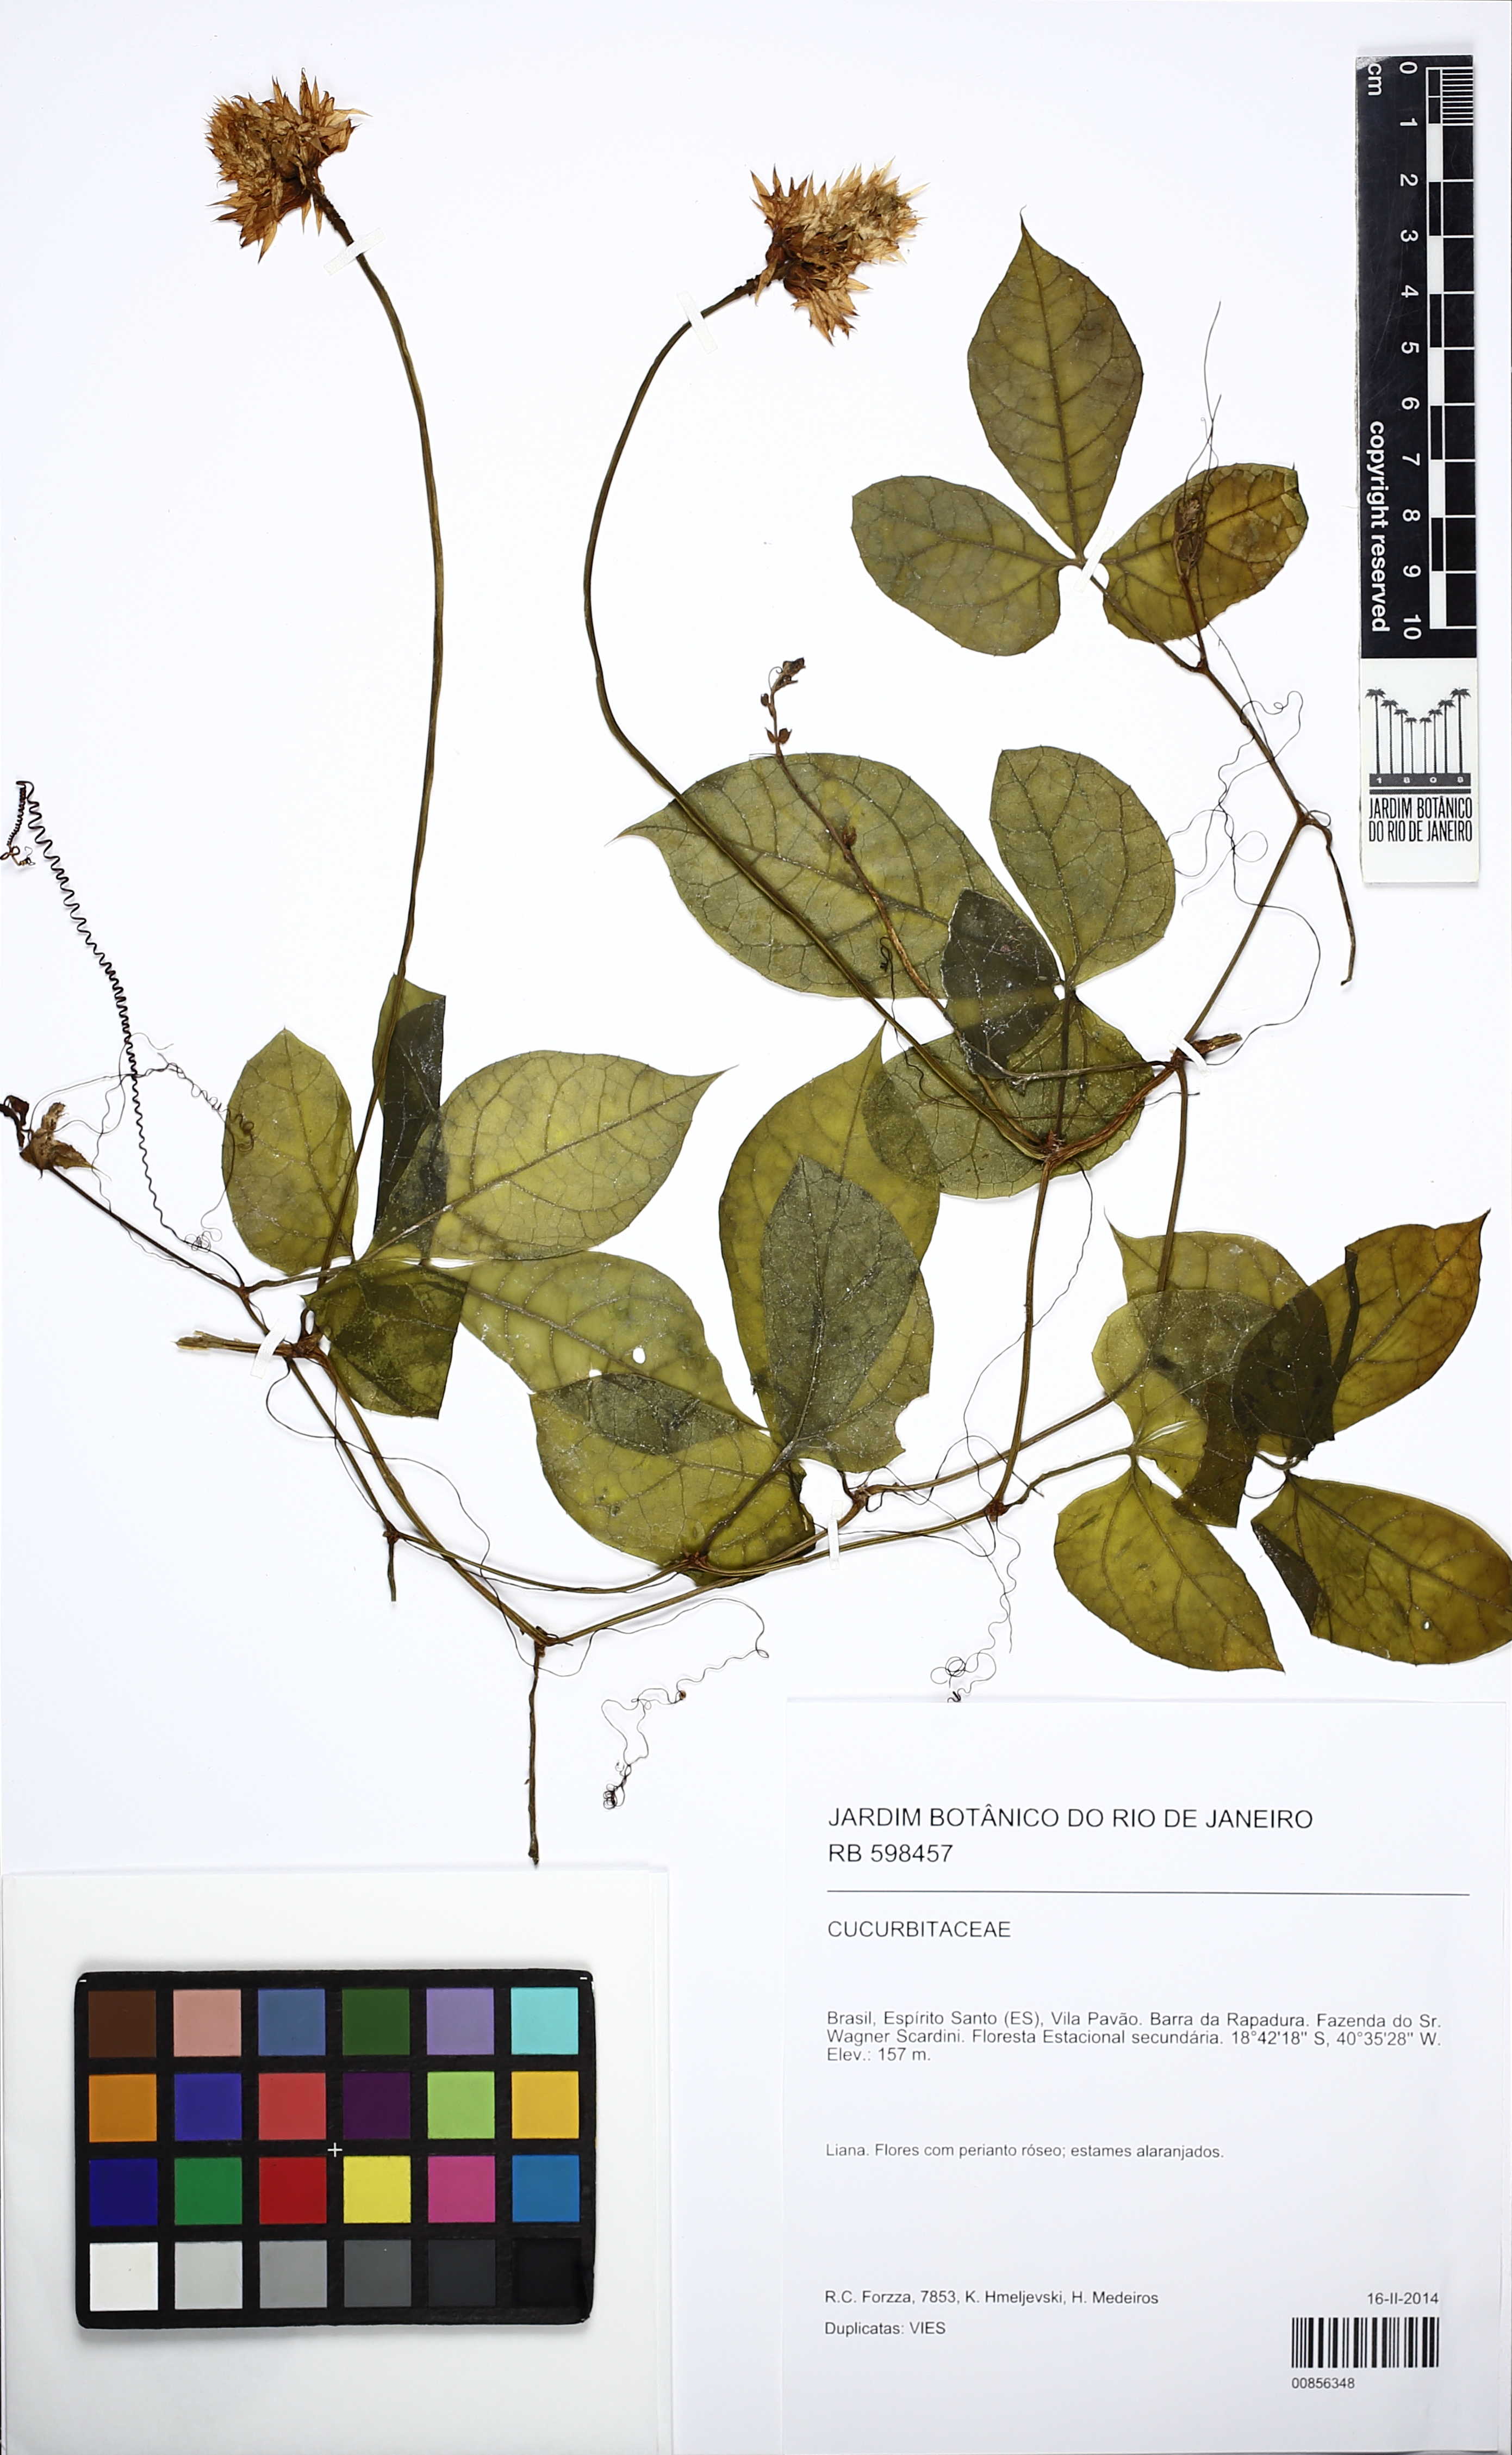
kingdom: Plantae
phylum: Tracheophyta
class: Magnoliopsida
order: Cucurbitales
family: Cucurbitaceae
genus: Gurania
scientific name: Gurania
